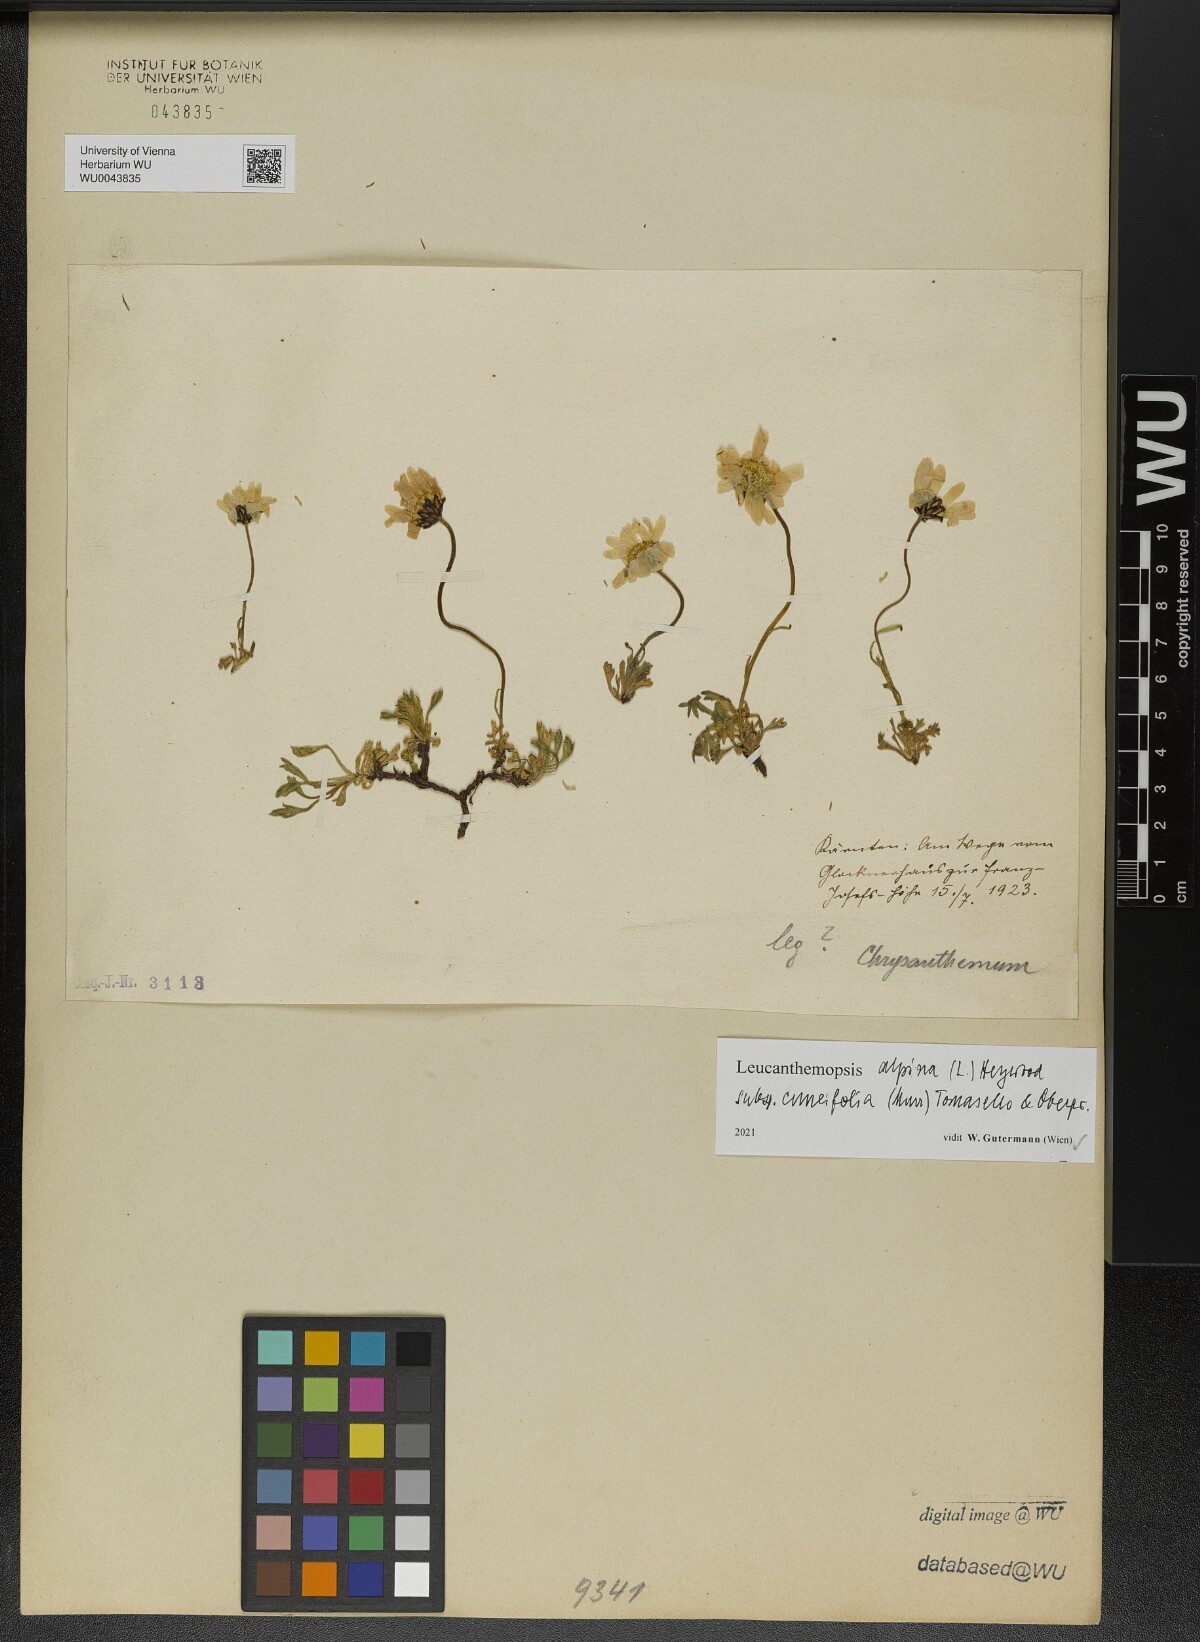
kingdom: Plantae
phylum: Tracheophyta
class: Magnoliopsida
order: Asterales
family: Asteraceae
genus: Leucanthemopsis
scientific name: Leucanthemopsis alpina
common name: Alpine moon daisy
